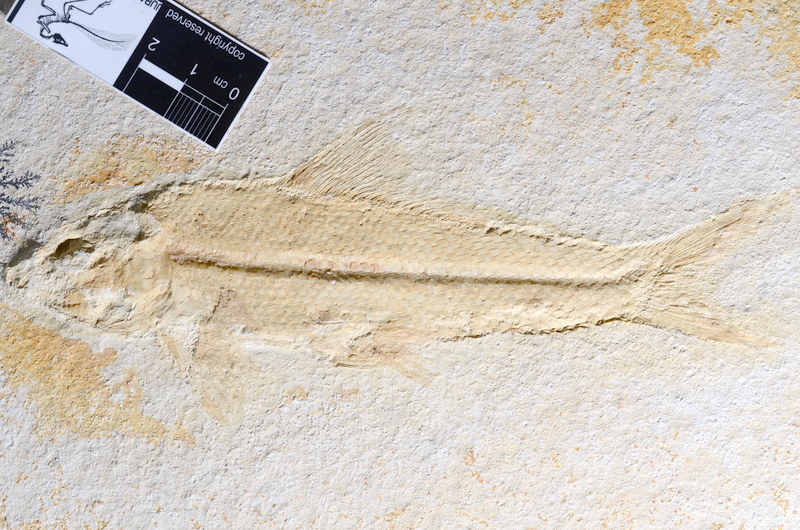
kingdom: Animalia
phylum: Chordata
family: Ophiopsiellidae
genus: Ophiopsiella
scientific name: Ophiopsiella procera
